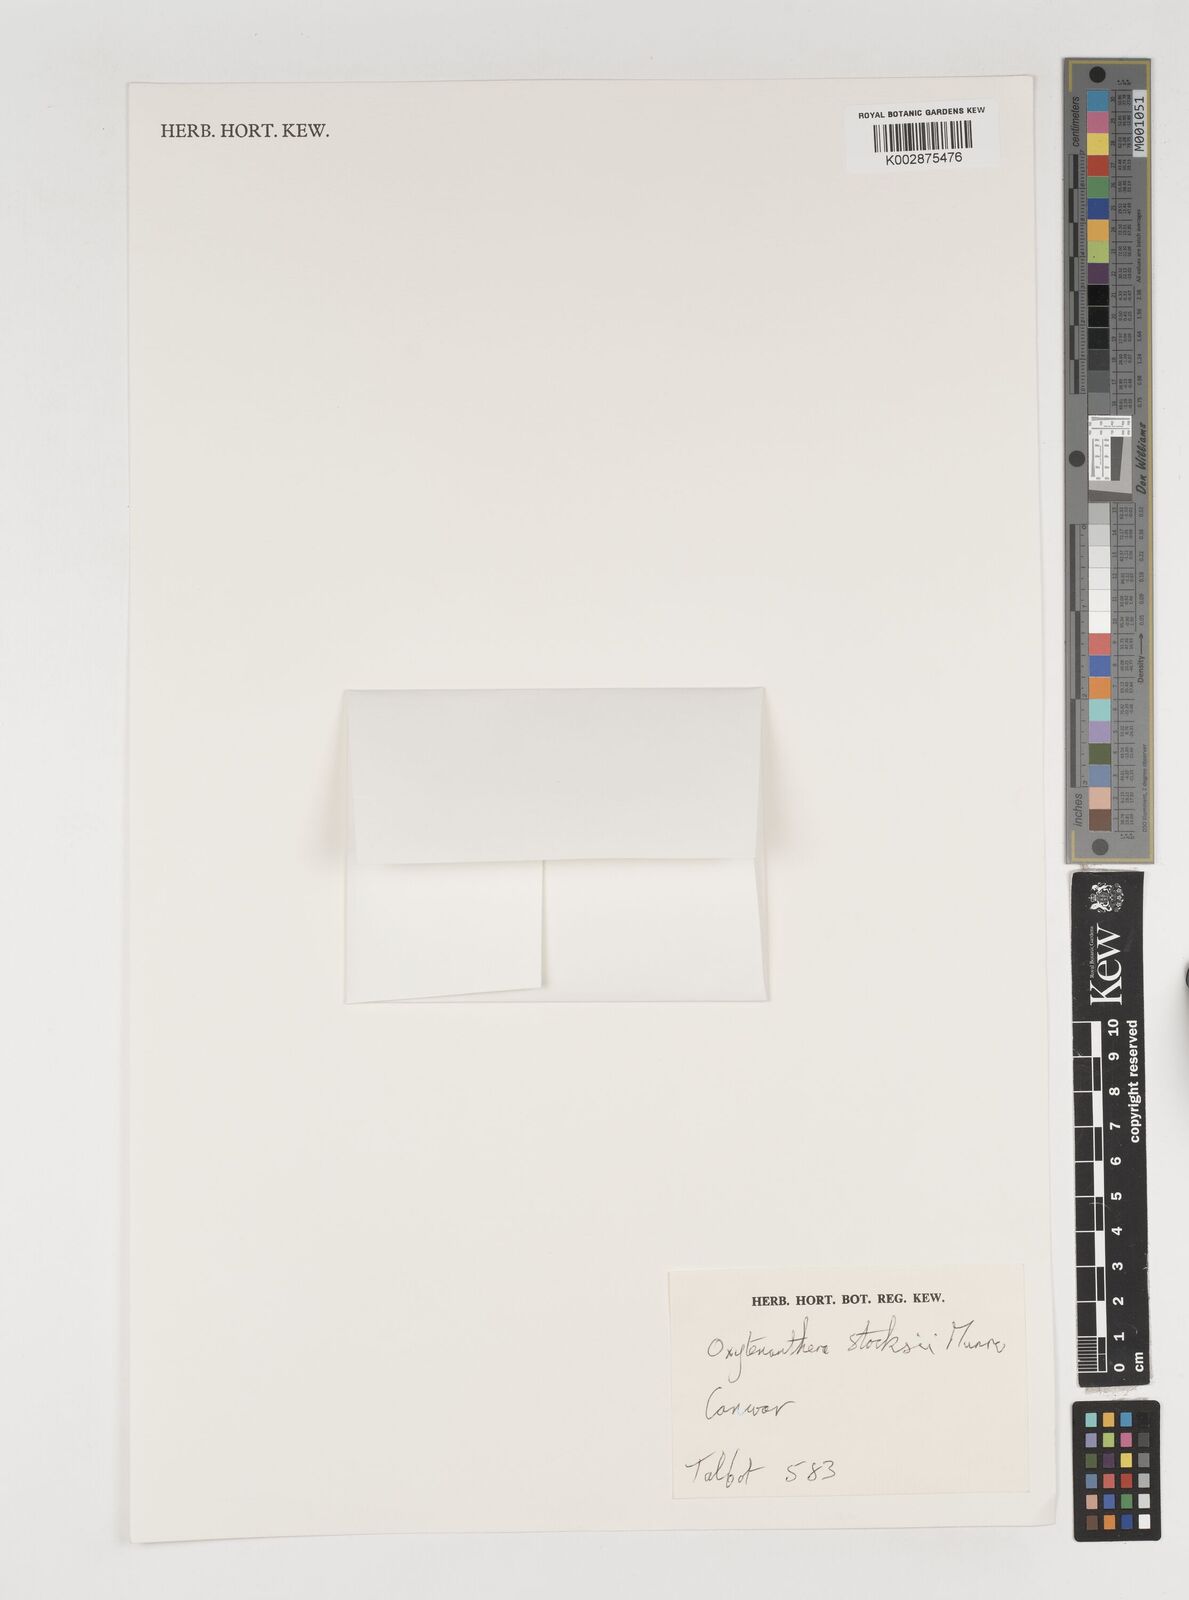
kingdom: Plantae
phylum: Tracheophyta
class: Liliopsida
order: Poales
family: Poaceae
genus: Pseudoxytenanthera
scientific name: Pseudoxytenanthera stocksii
